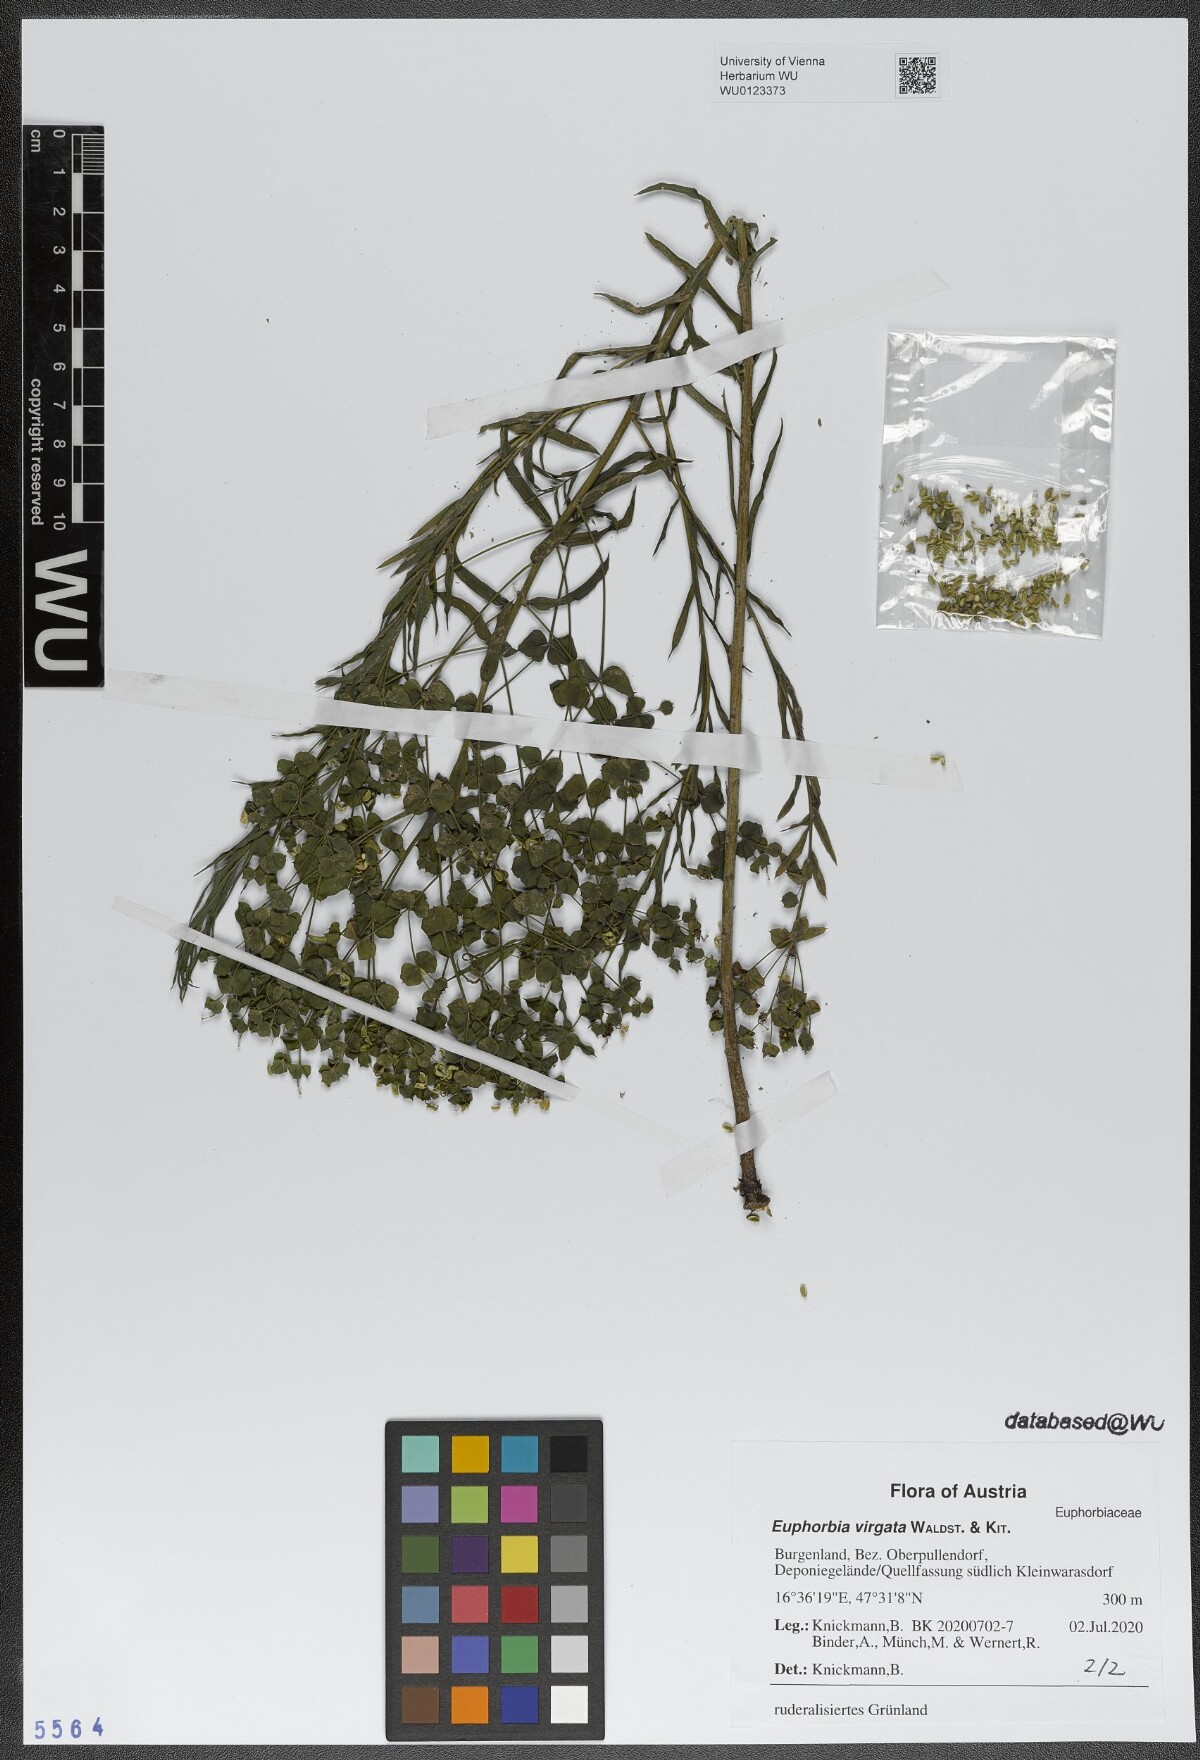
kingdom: Plantae
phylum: Tracheophyta
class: Magnoliopsida
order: Malpighiales
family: Euphorbiaceae
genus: Euphorbia
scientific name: Euphorbia virgata
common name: Leafy spurge
